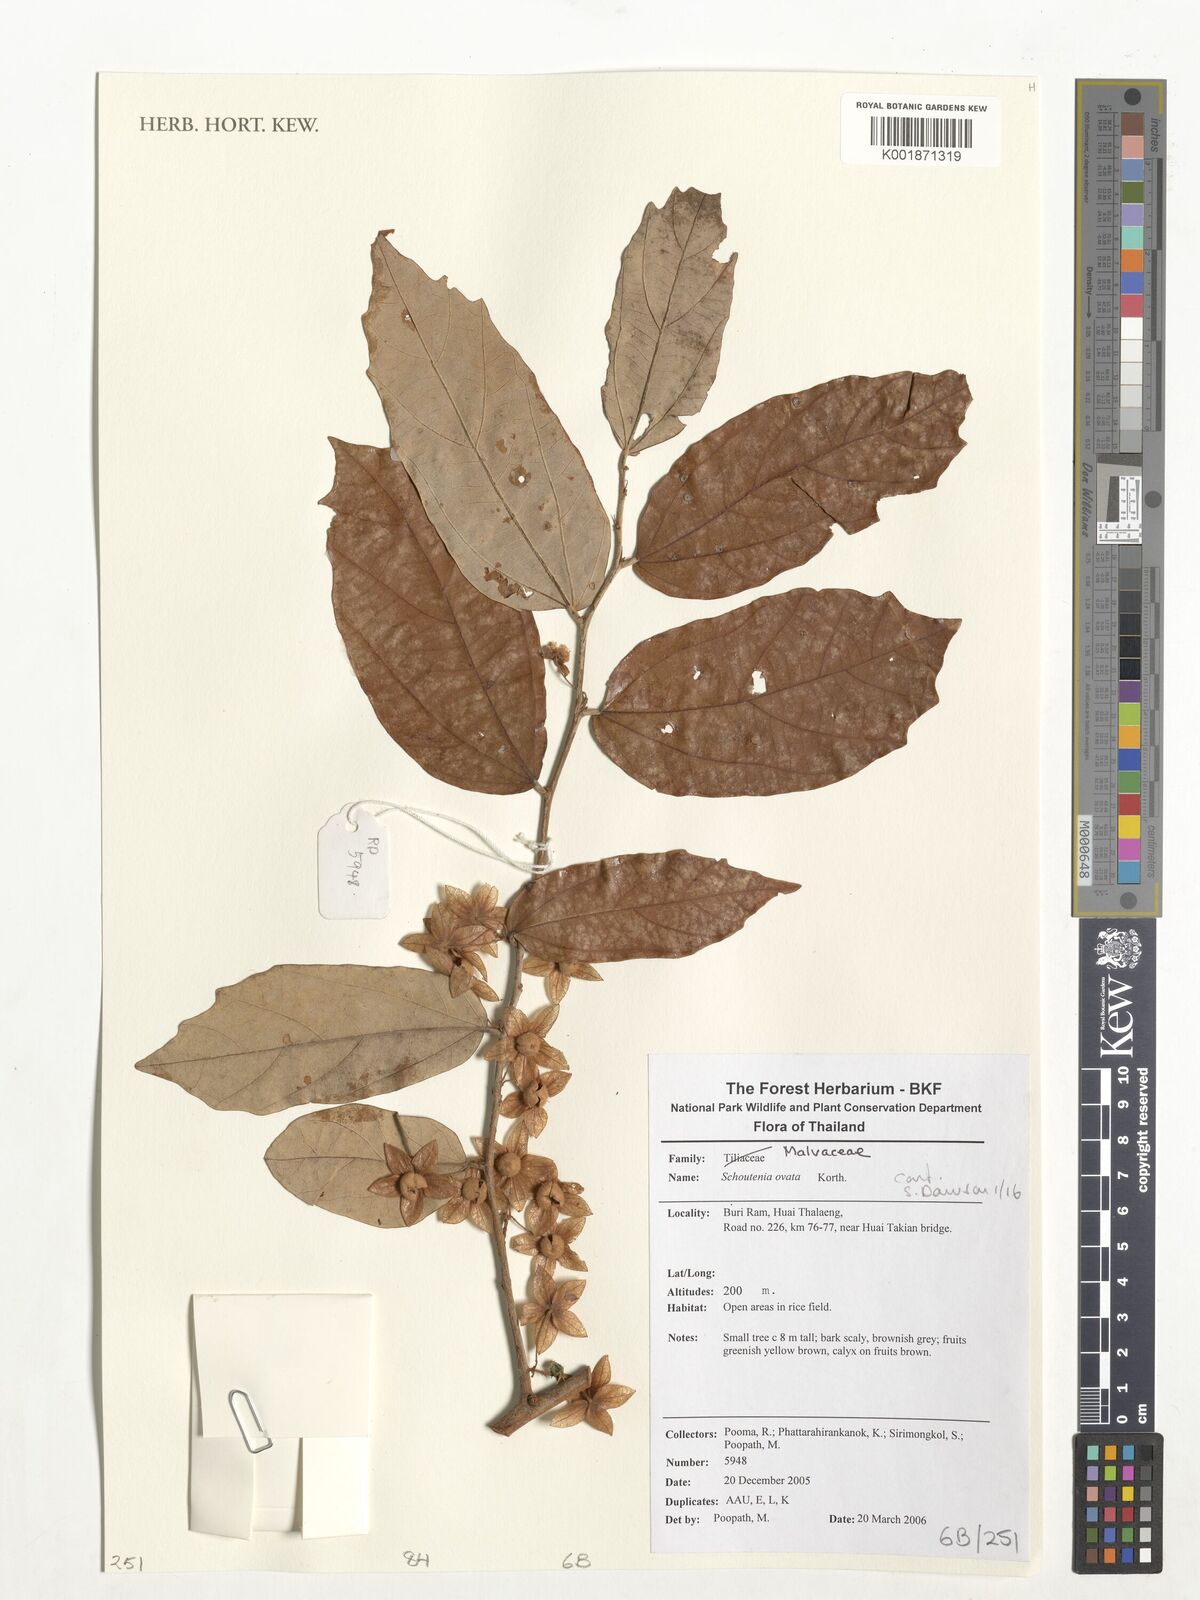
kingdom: Plantae
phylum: Tracheophyta
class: Magnoliopsida
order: Malvales
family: Malvaceae
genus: Schoutenia
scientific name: Schoutenia ovata
